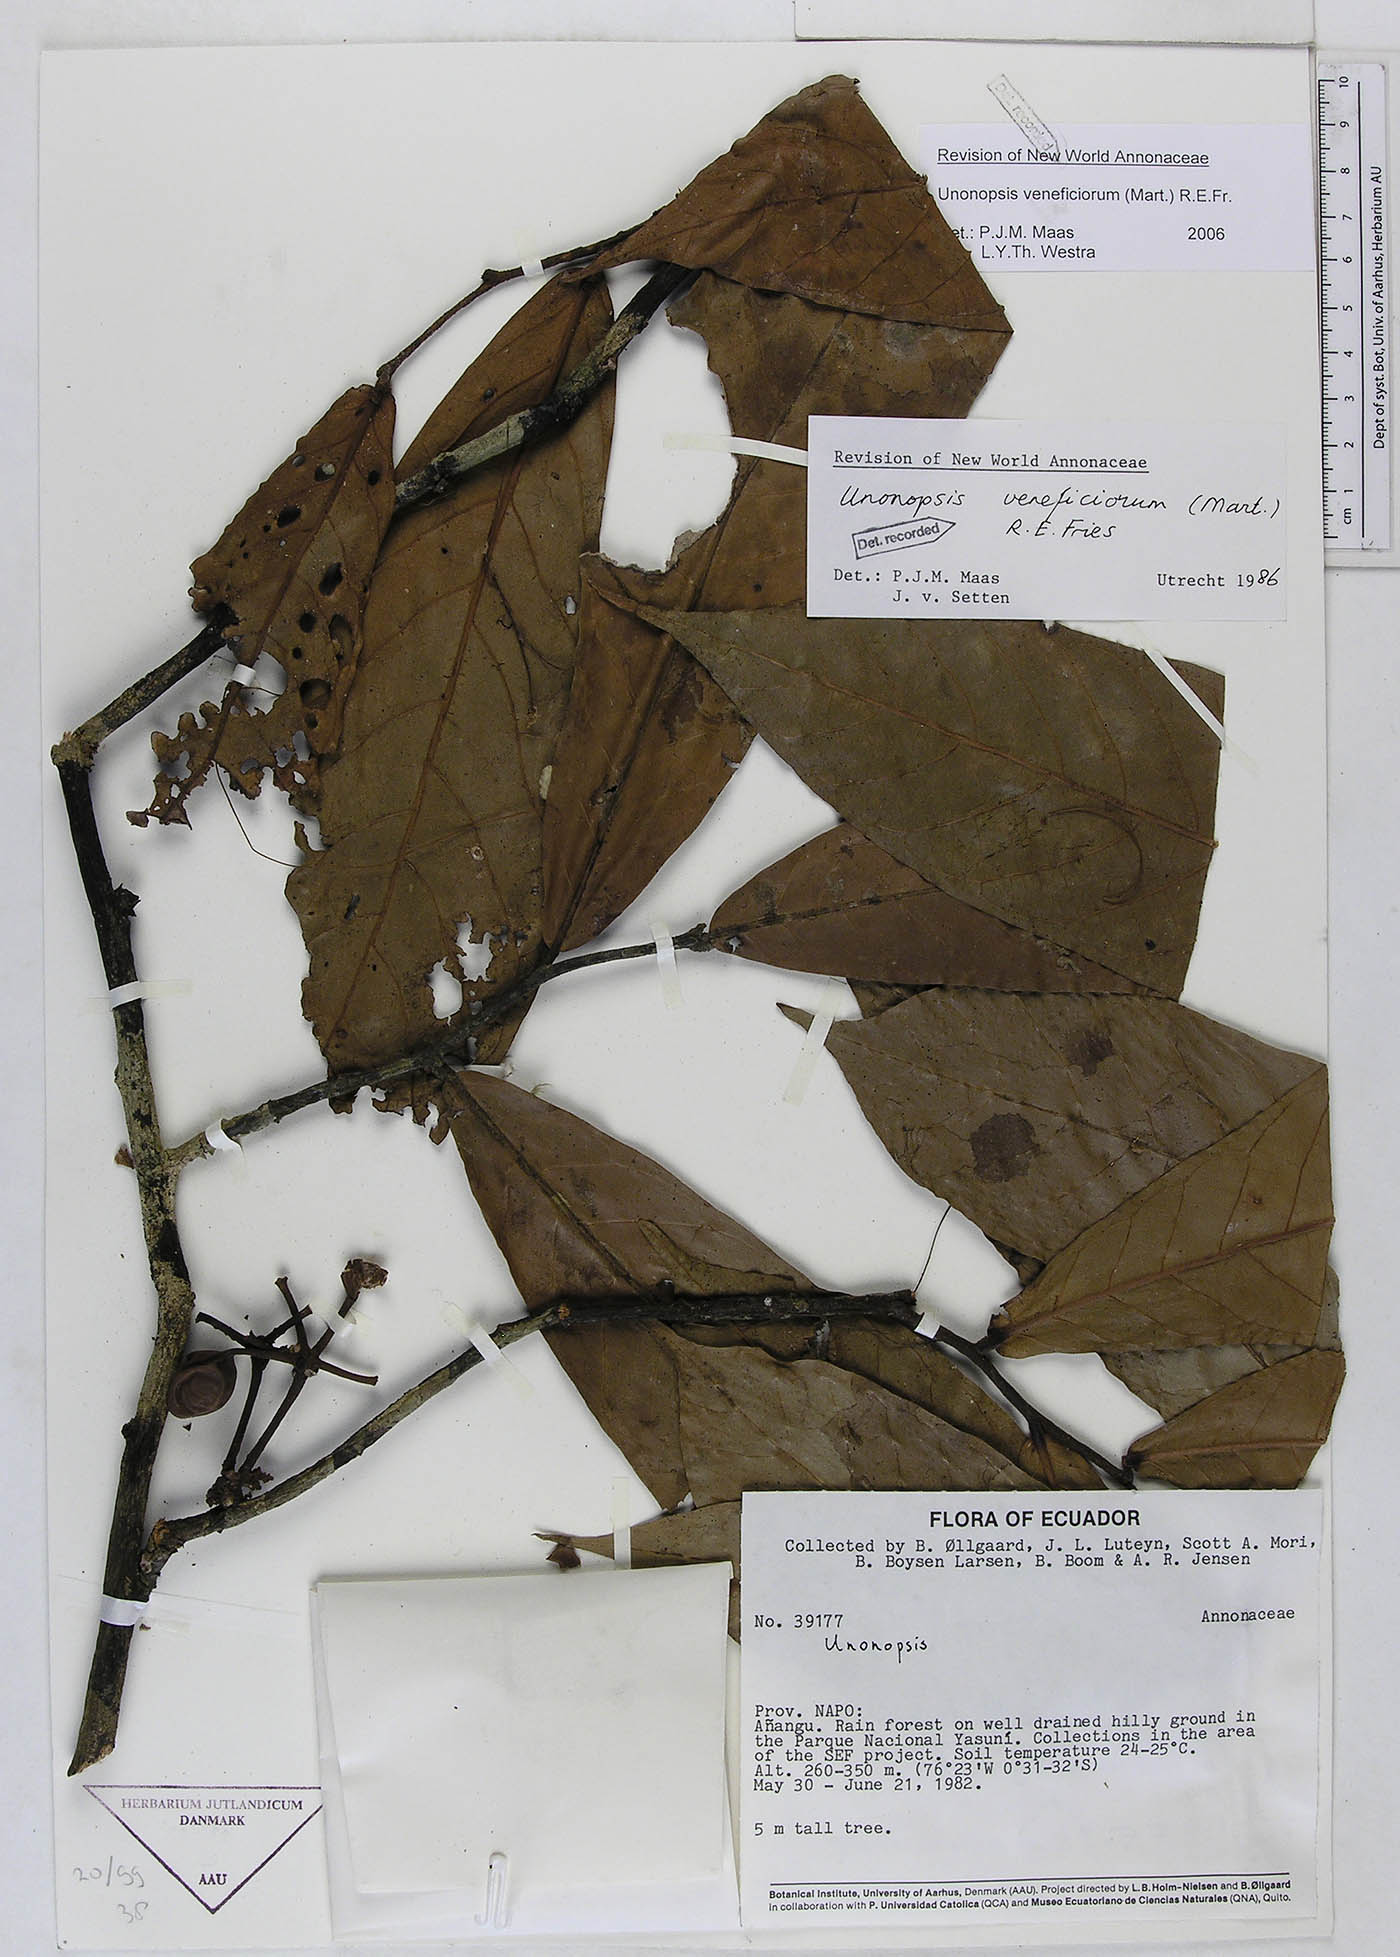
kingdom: Plantae
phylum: Tracheophyta
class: Magnoliopsida
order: Magnoliales
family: Annonaceae
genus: Unonopsis
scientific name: Unonopsis veneficiorum
